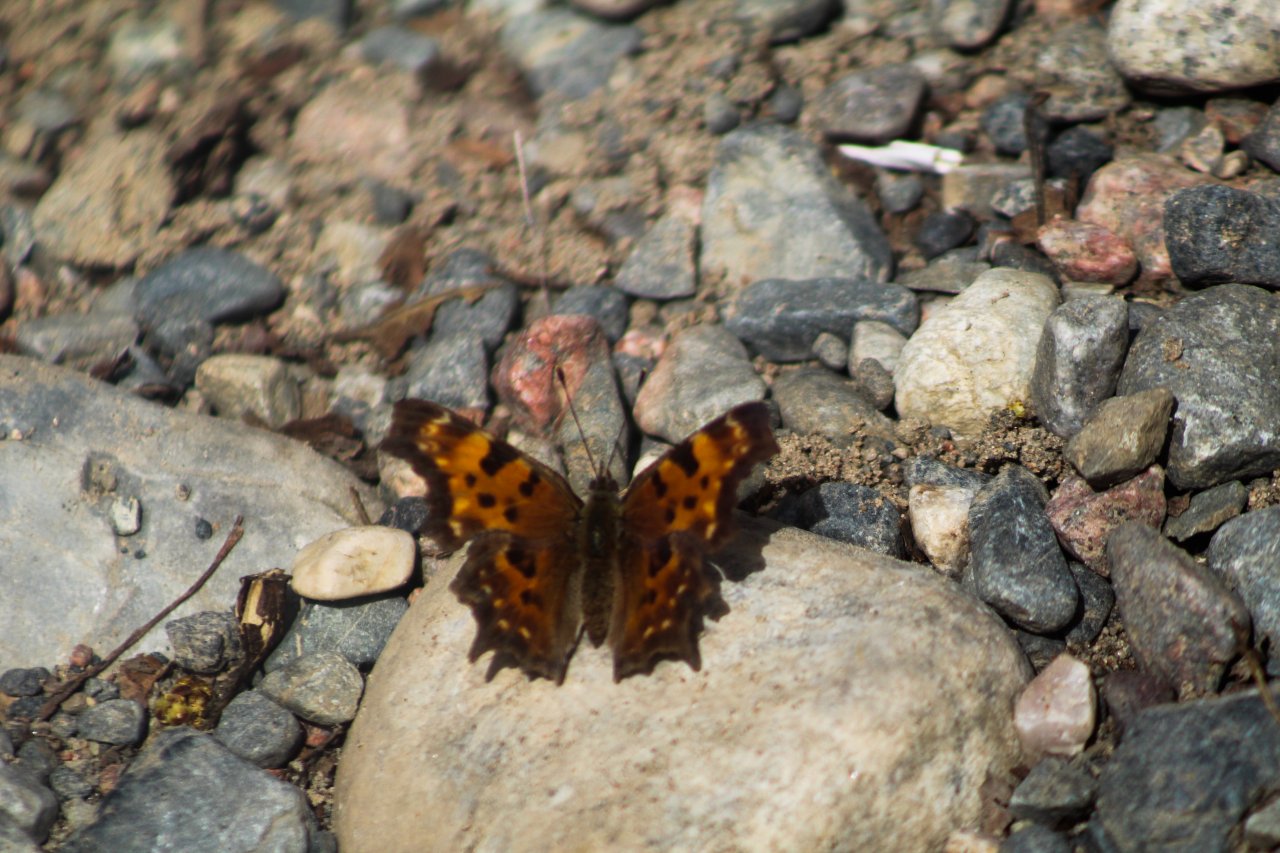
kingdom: Animalia
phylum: Arthropoda
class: Insecta
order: Lepidoptera
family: Nymphalidae
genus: Polygonia
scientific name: Polygonia faunus
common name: Green Comma
